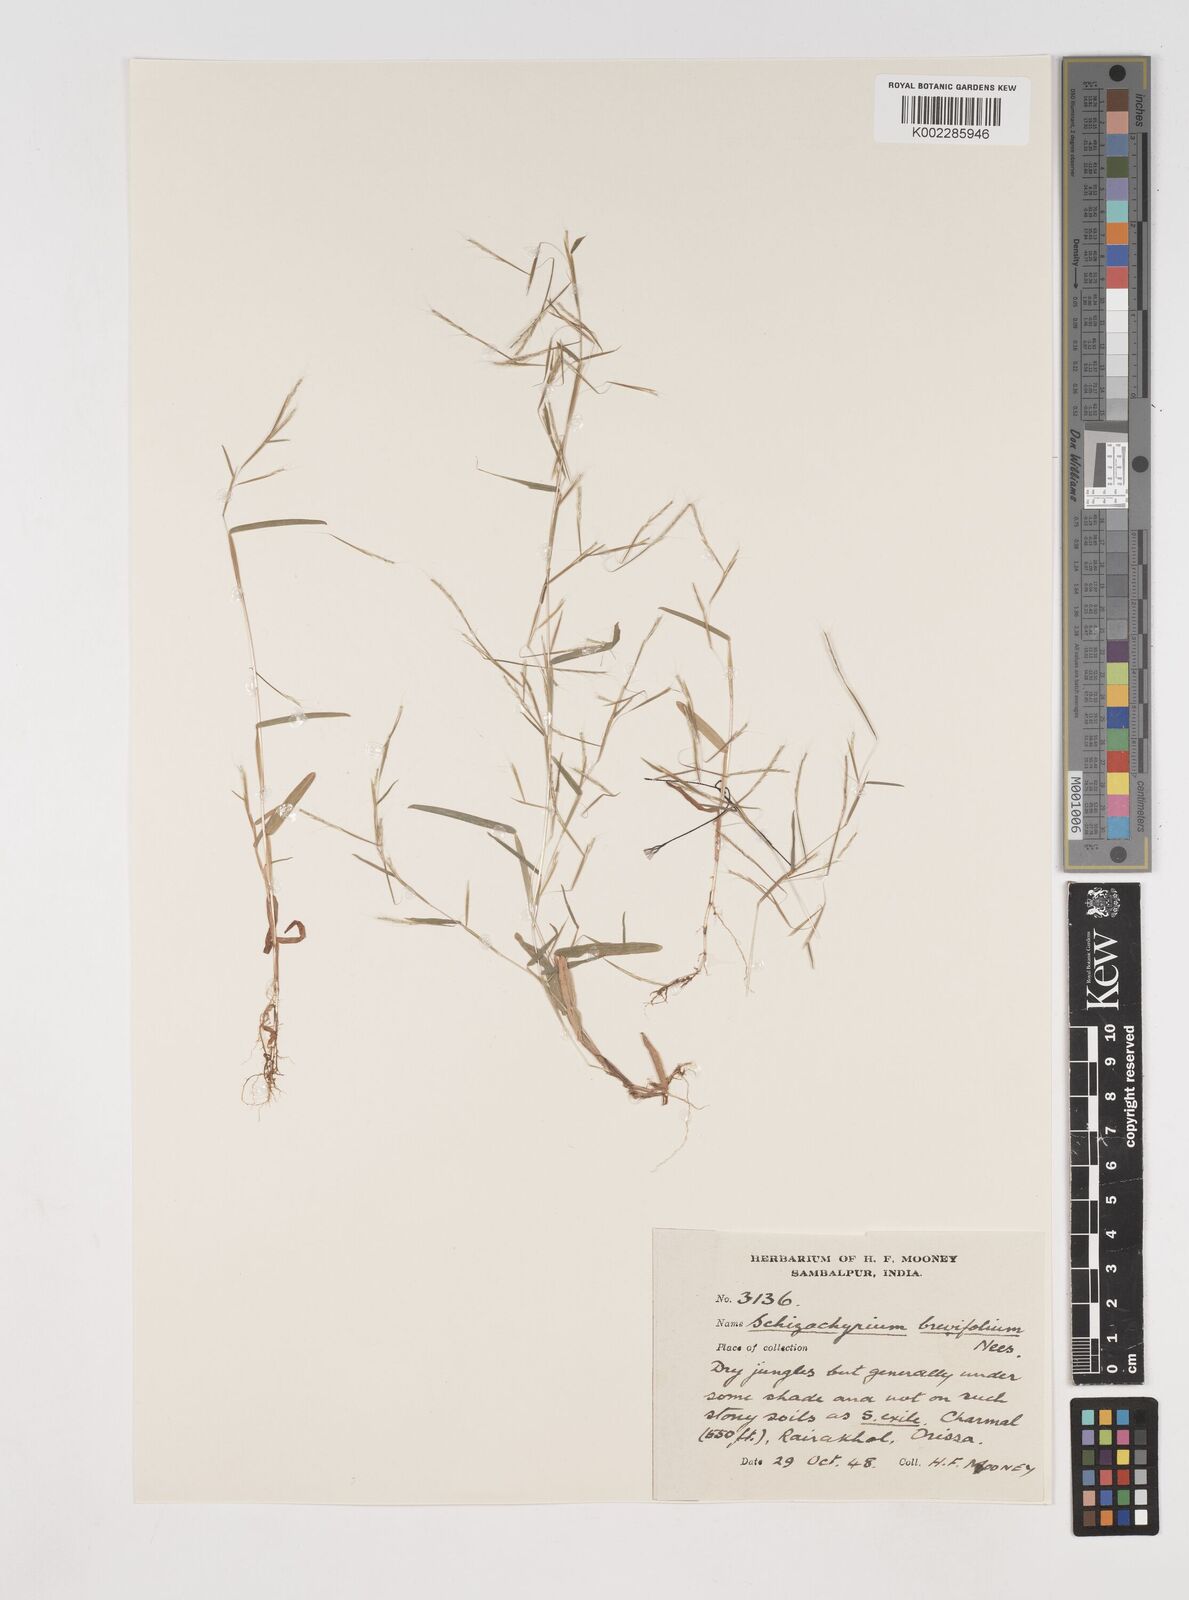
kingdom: Plantae
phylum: Tracheophyta
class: Liliopsida
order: Poales
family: Poaceae
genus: Schizachyrium
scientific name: Schizachyrium brevifolium
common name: Serillo dulce
